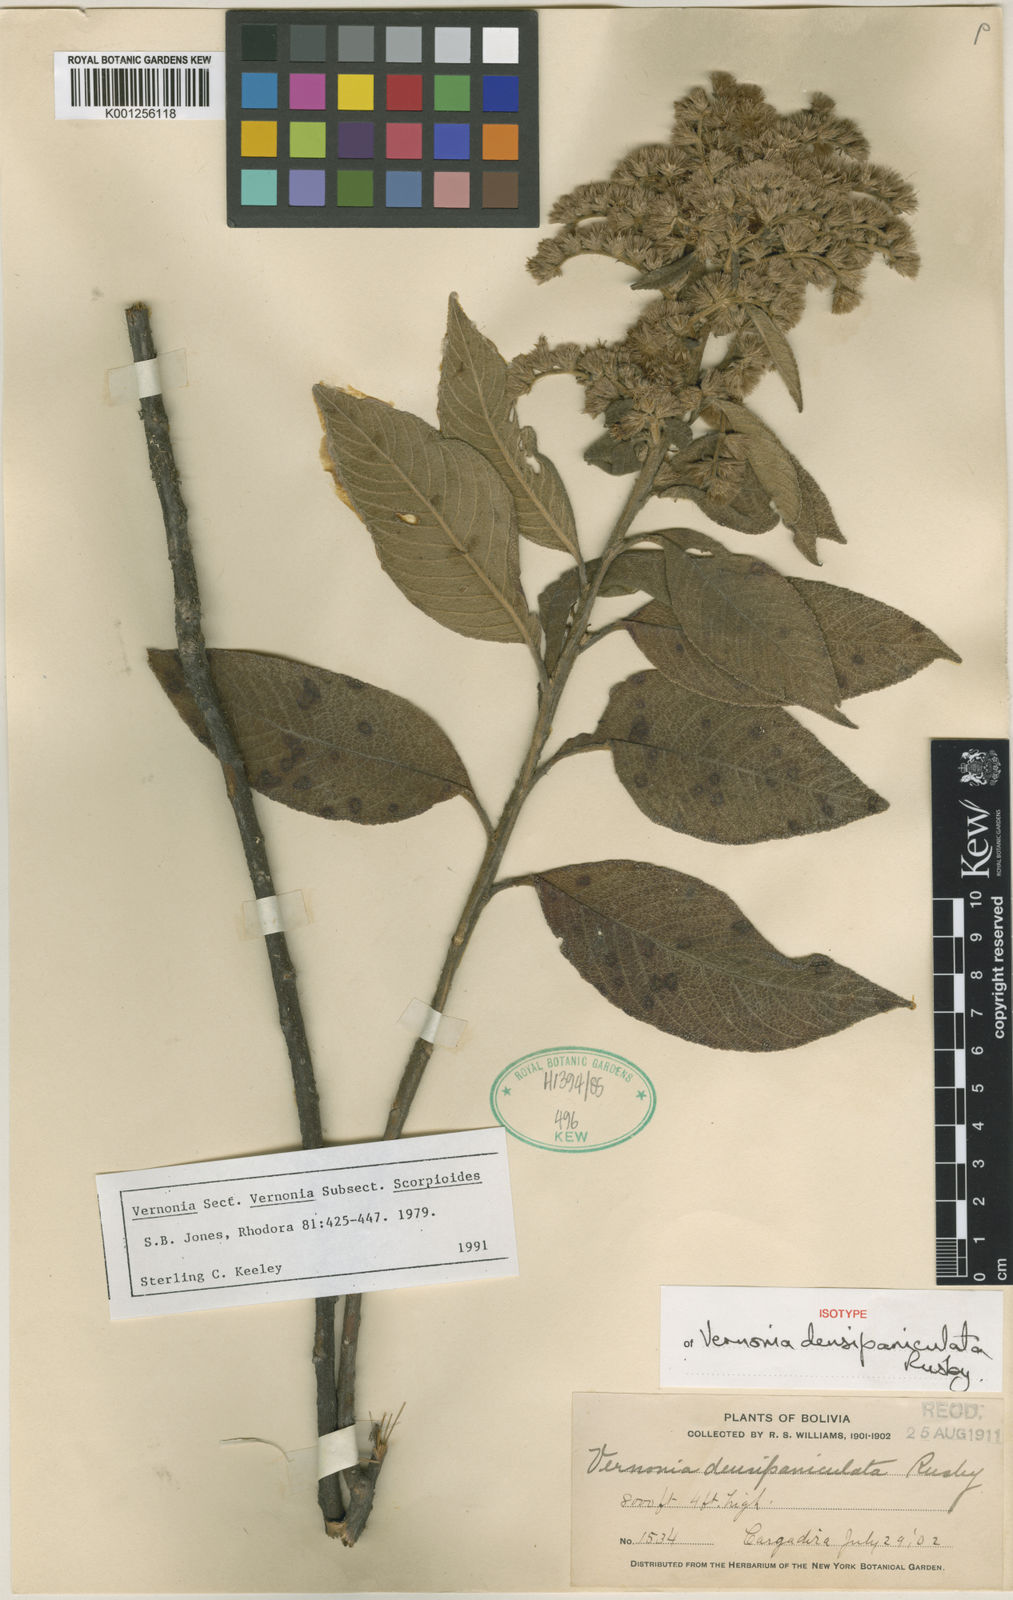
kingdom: Plantae
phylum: Tracheophyta
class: Magnoliopsida
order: Asterales
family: Asteraceae
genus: Lepidaploa
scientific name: Lepidaploa densipaniculata
